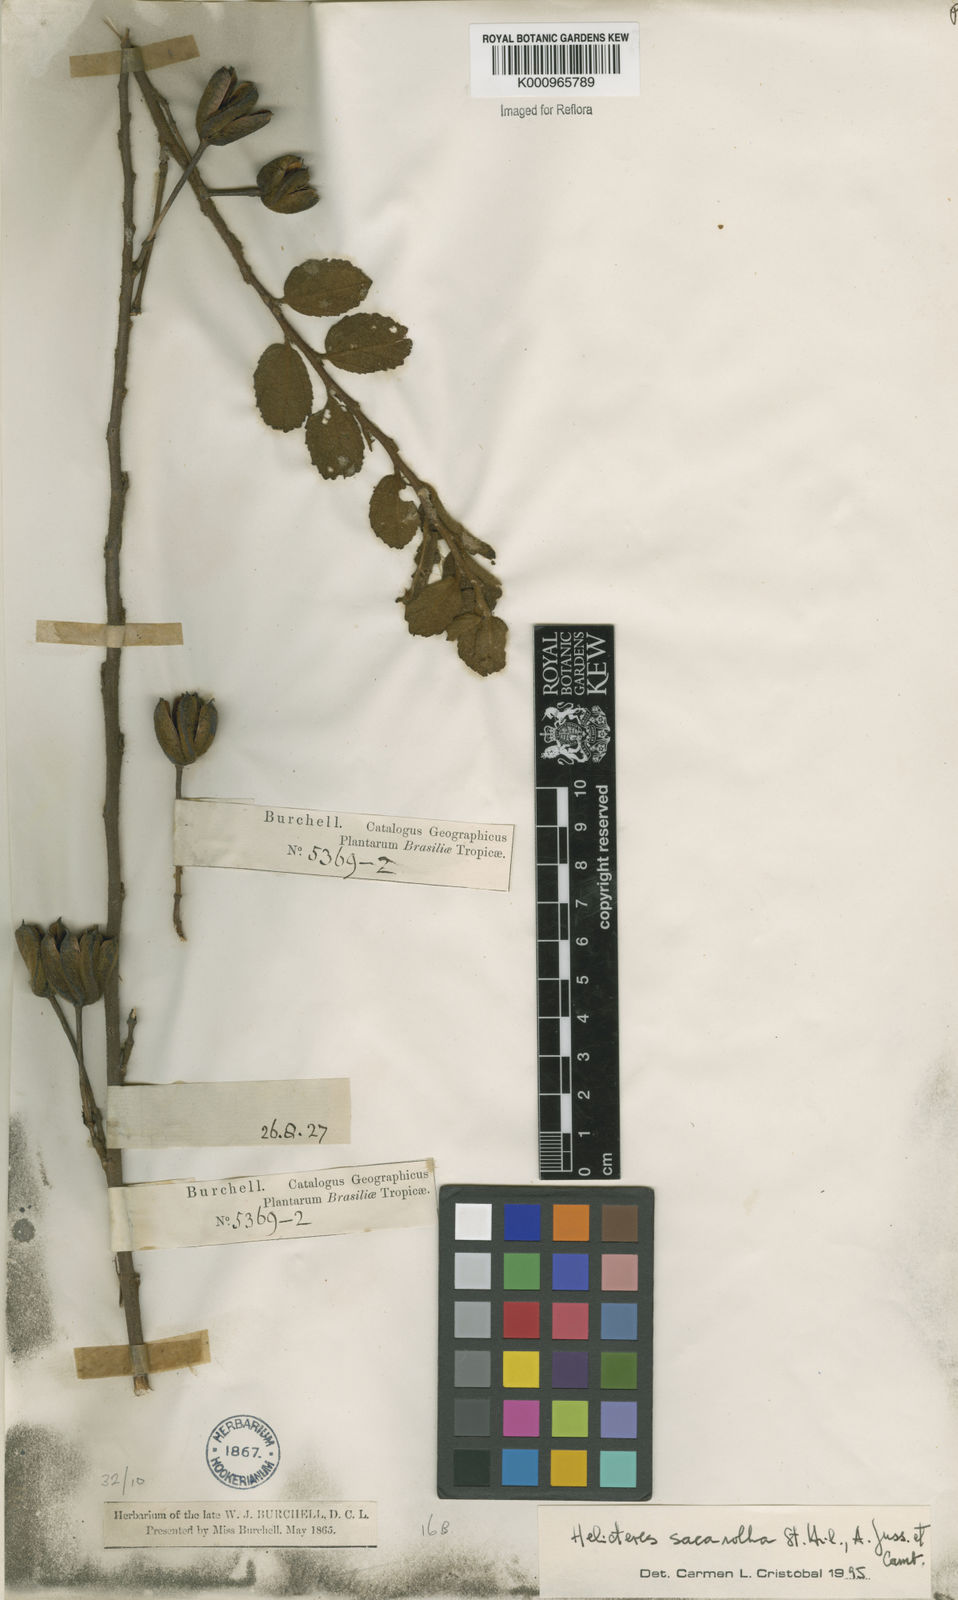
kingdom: Plantae
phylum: Tracheophyta
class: Magnoliopsida
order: Malvales
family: Malvaceae
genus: Helicteres
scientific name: Helicteres
